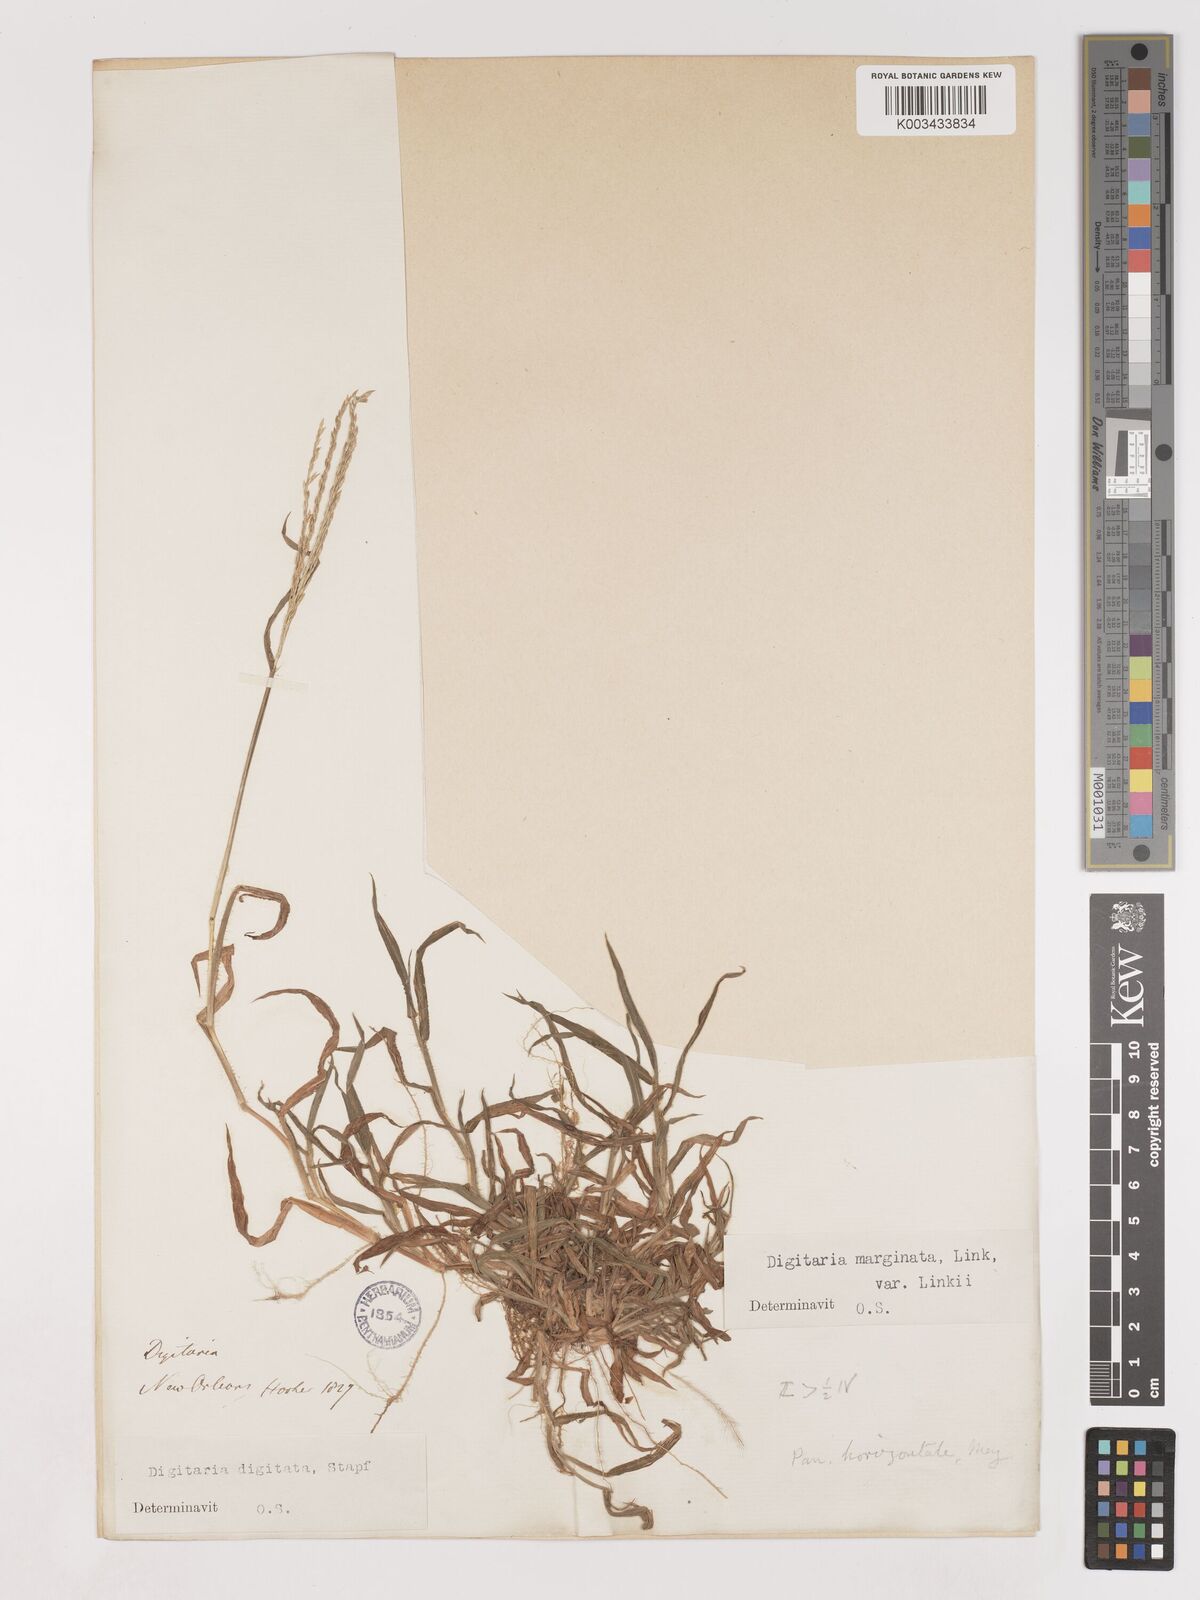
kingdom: Plantae
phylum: Tracheophyta
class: Liliopsida
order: Poales
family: Poaceae
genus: Digitaria
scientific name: Digitaria ciliaris
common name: Tropical finger-grass
